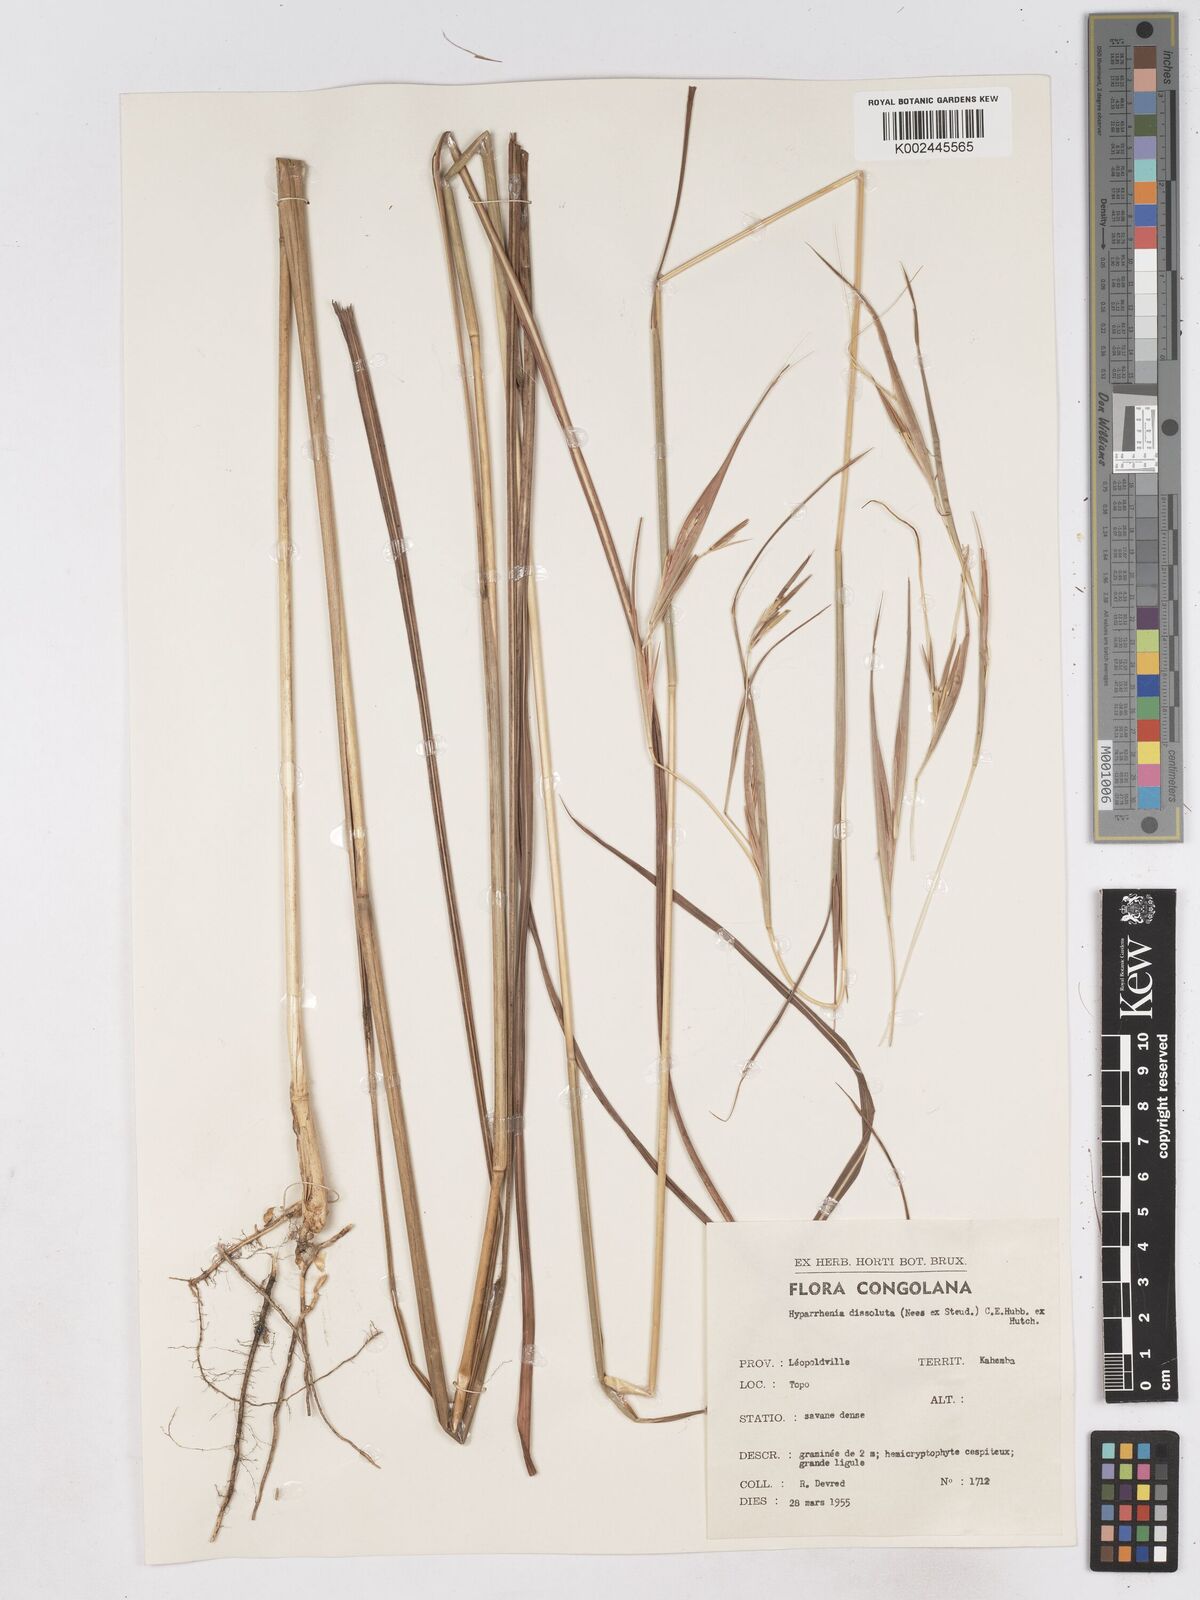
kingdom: Plantae
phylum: Tracheophyta
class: Liliopsida
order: Poales
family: Poaceae
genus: Hyperthelia
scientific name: Hyperthelia dissoluta
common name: Yellow thatching grass
